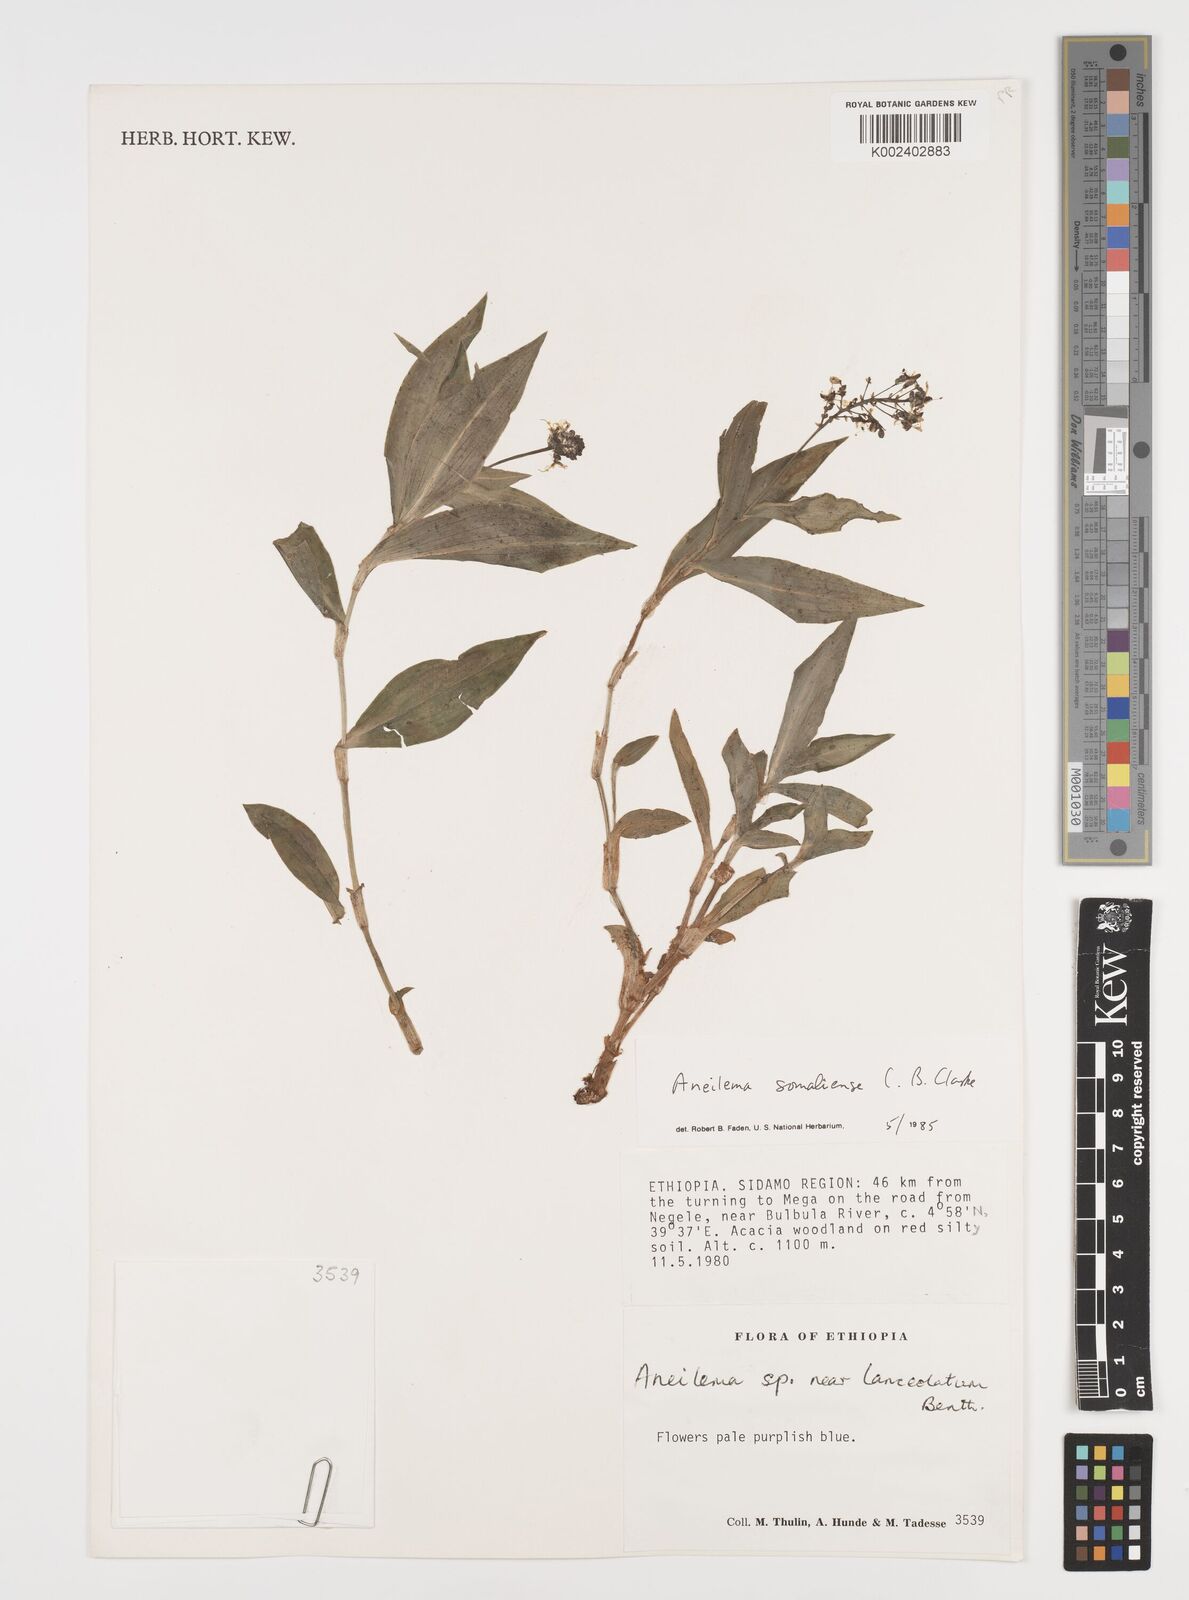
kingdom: Plantae
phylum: Tracheophyta
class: Liliopsida
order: Commelinales
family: Commelinaceae
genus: Aneilema
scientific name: Aneilema somaliense
